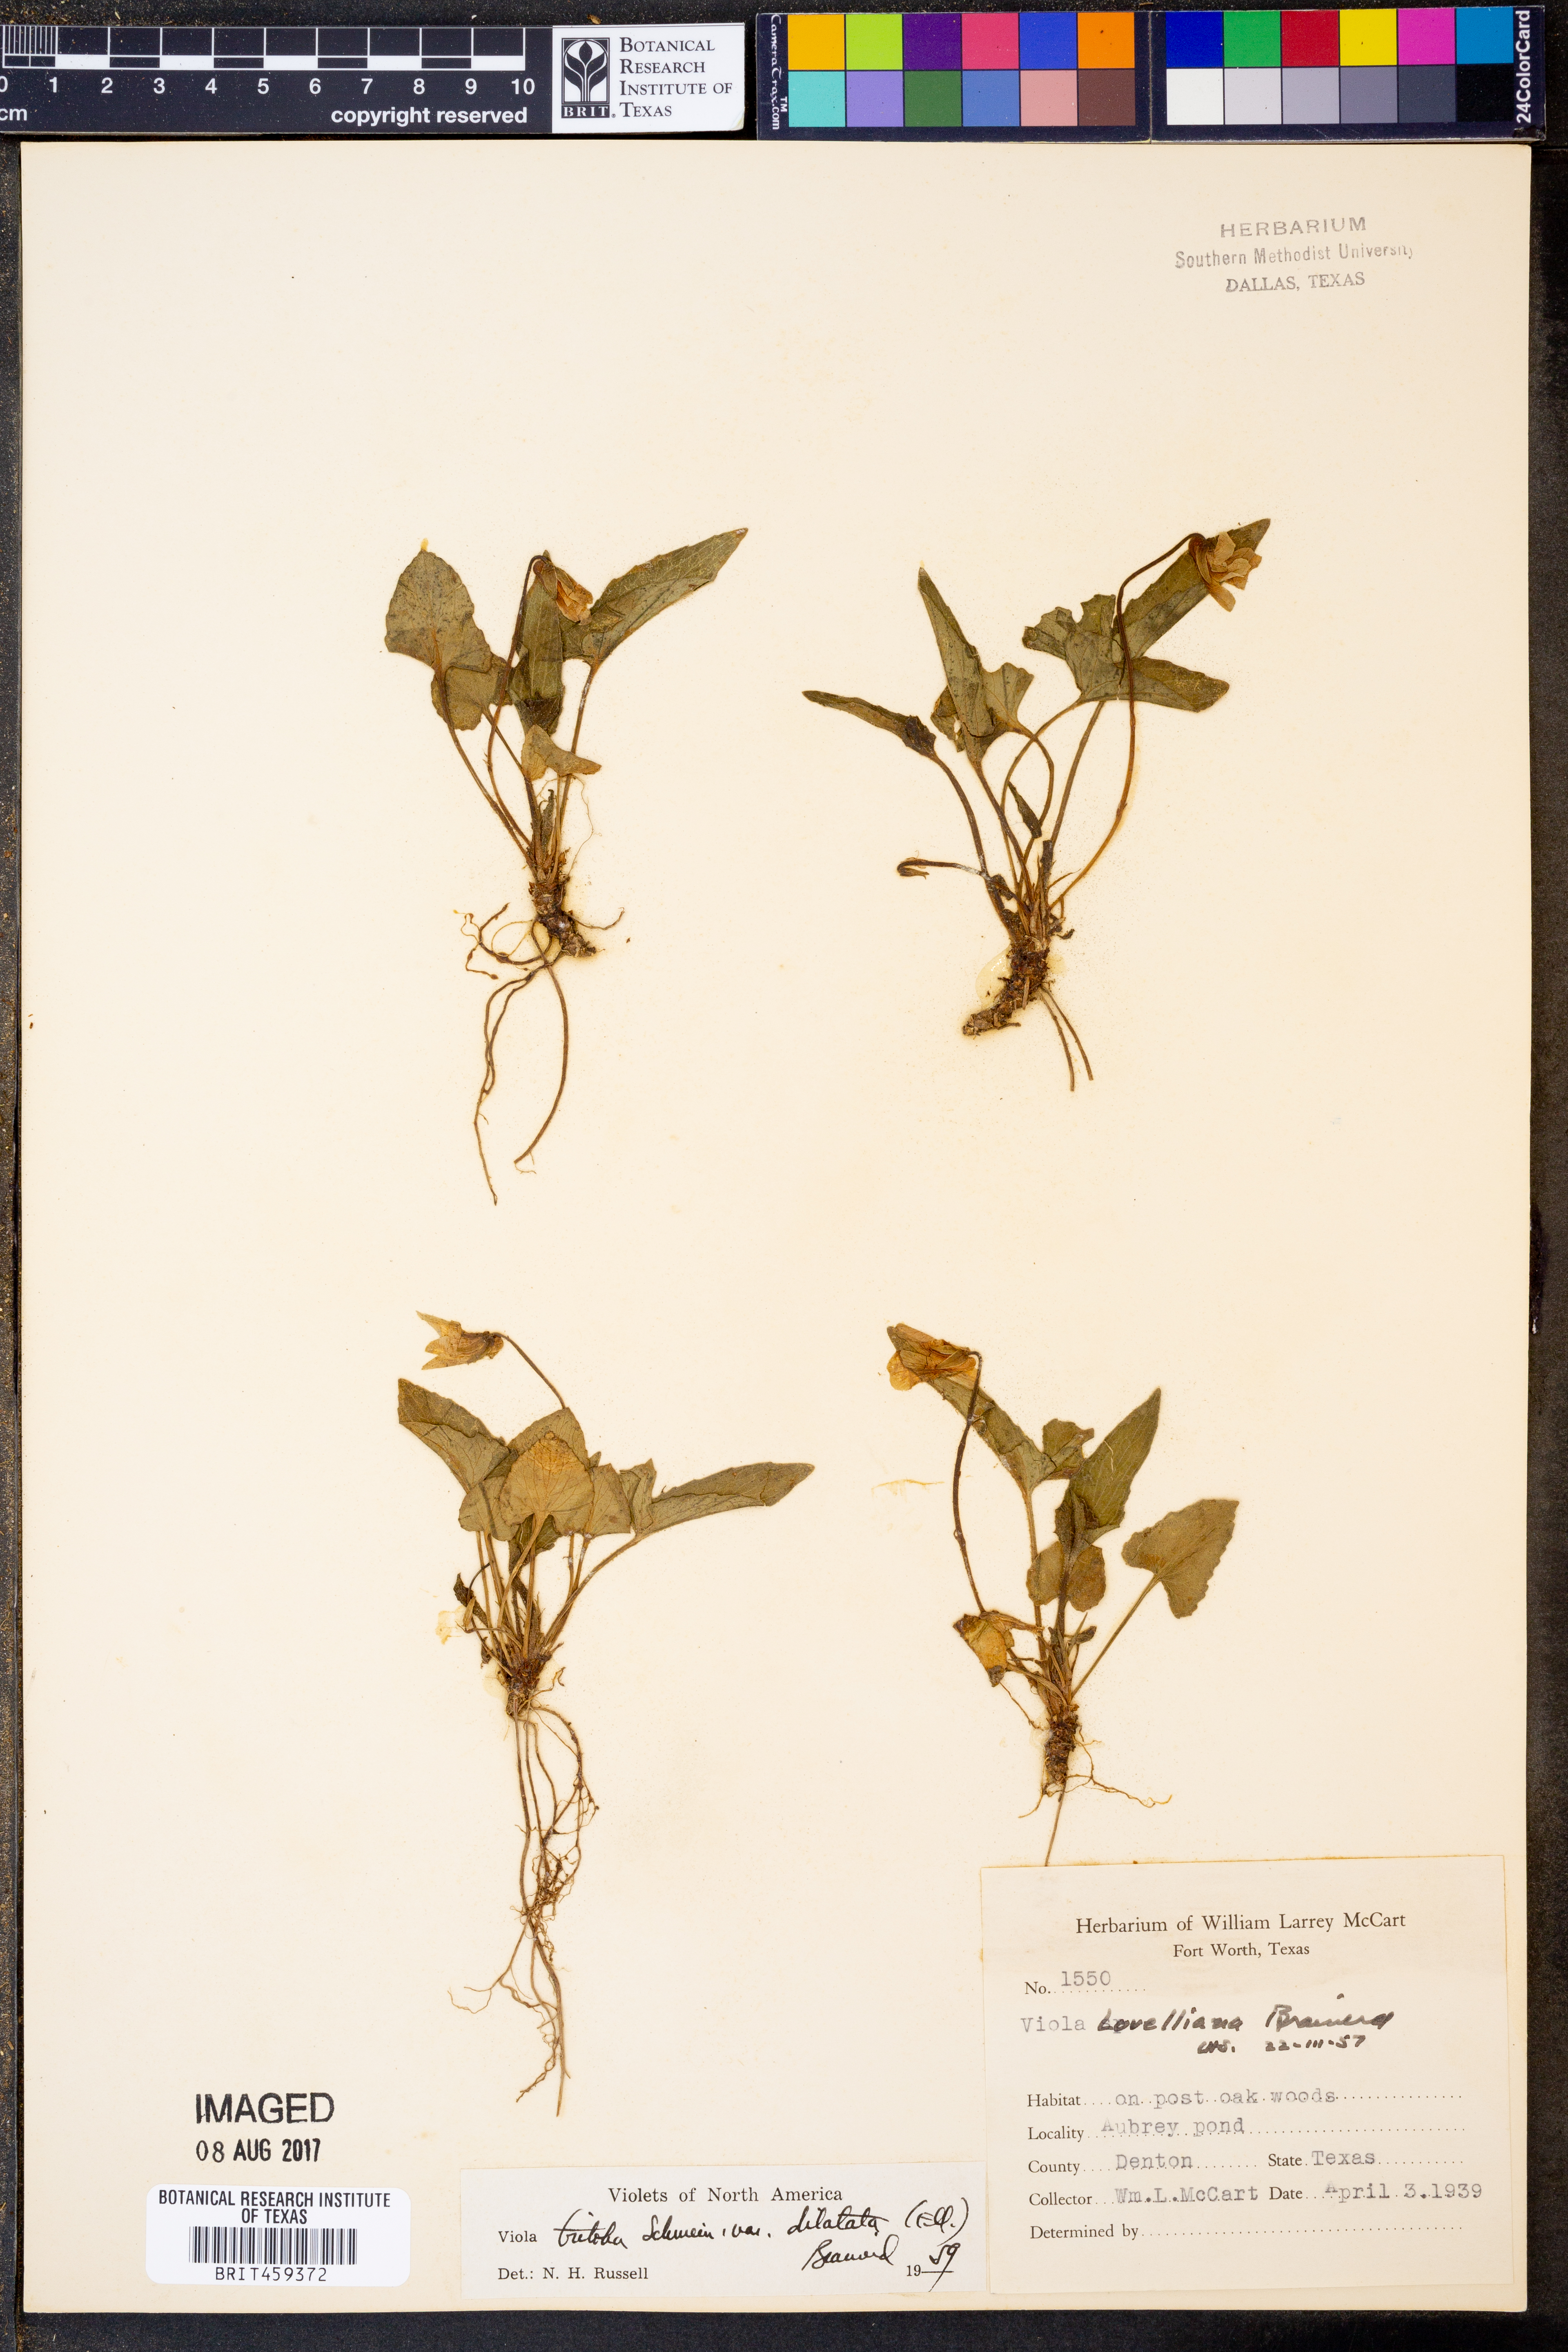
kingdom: Plantae
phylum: Tracheophyta
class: Magnoliopsida
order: Malpighiales
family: Violaceae
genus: Viola
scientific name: Viola palmata
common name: Early blue violet
